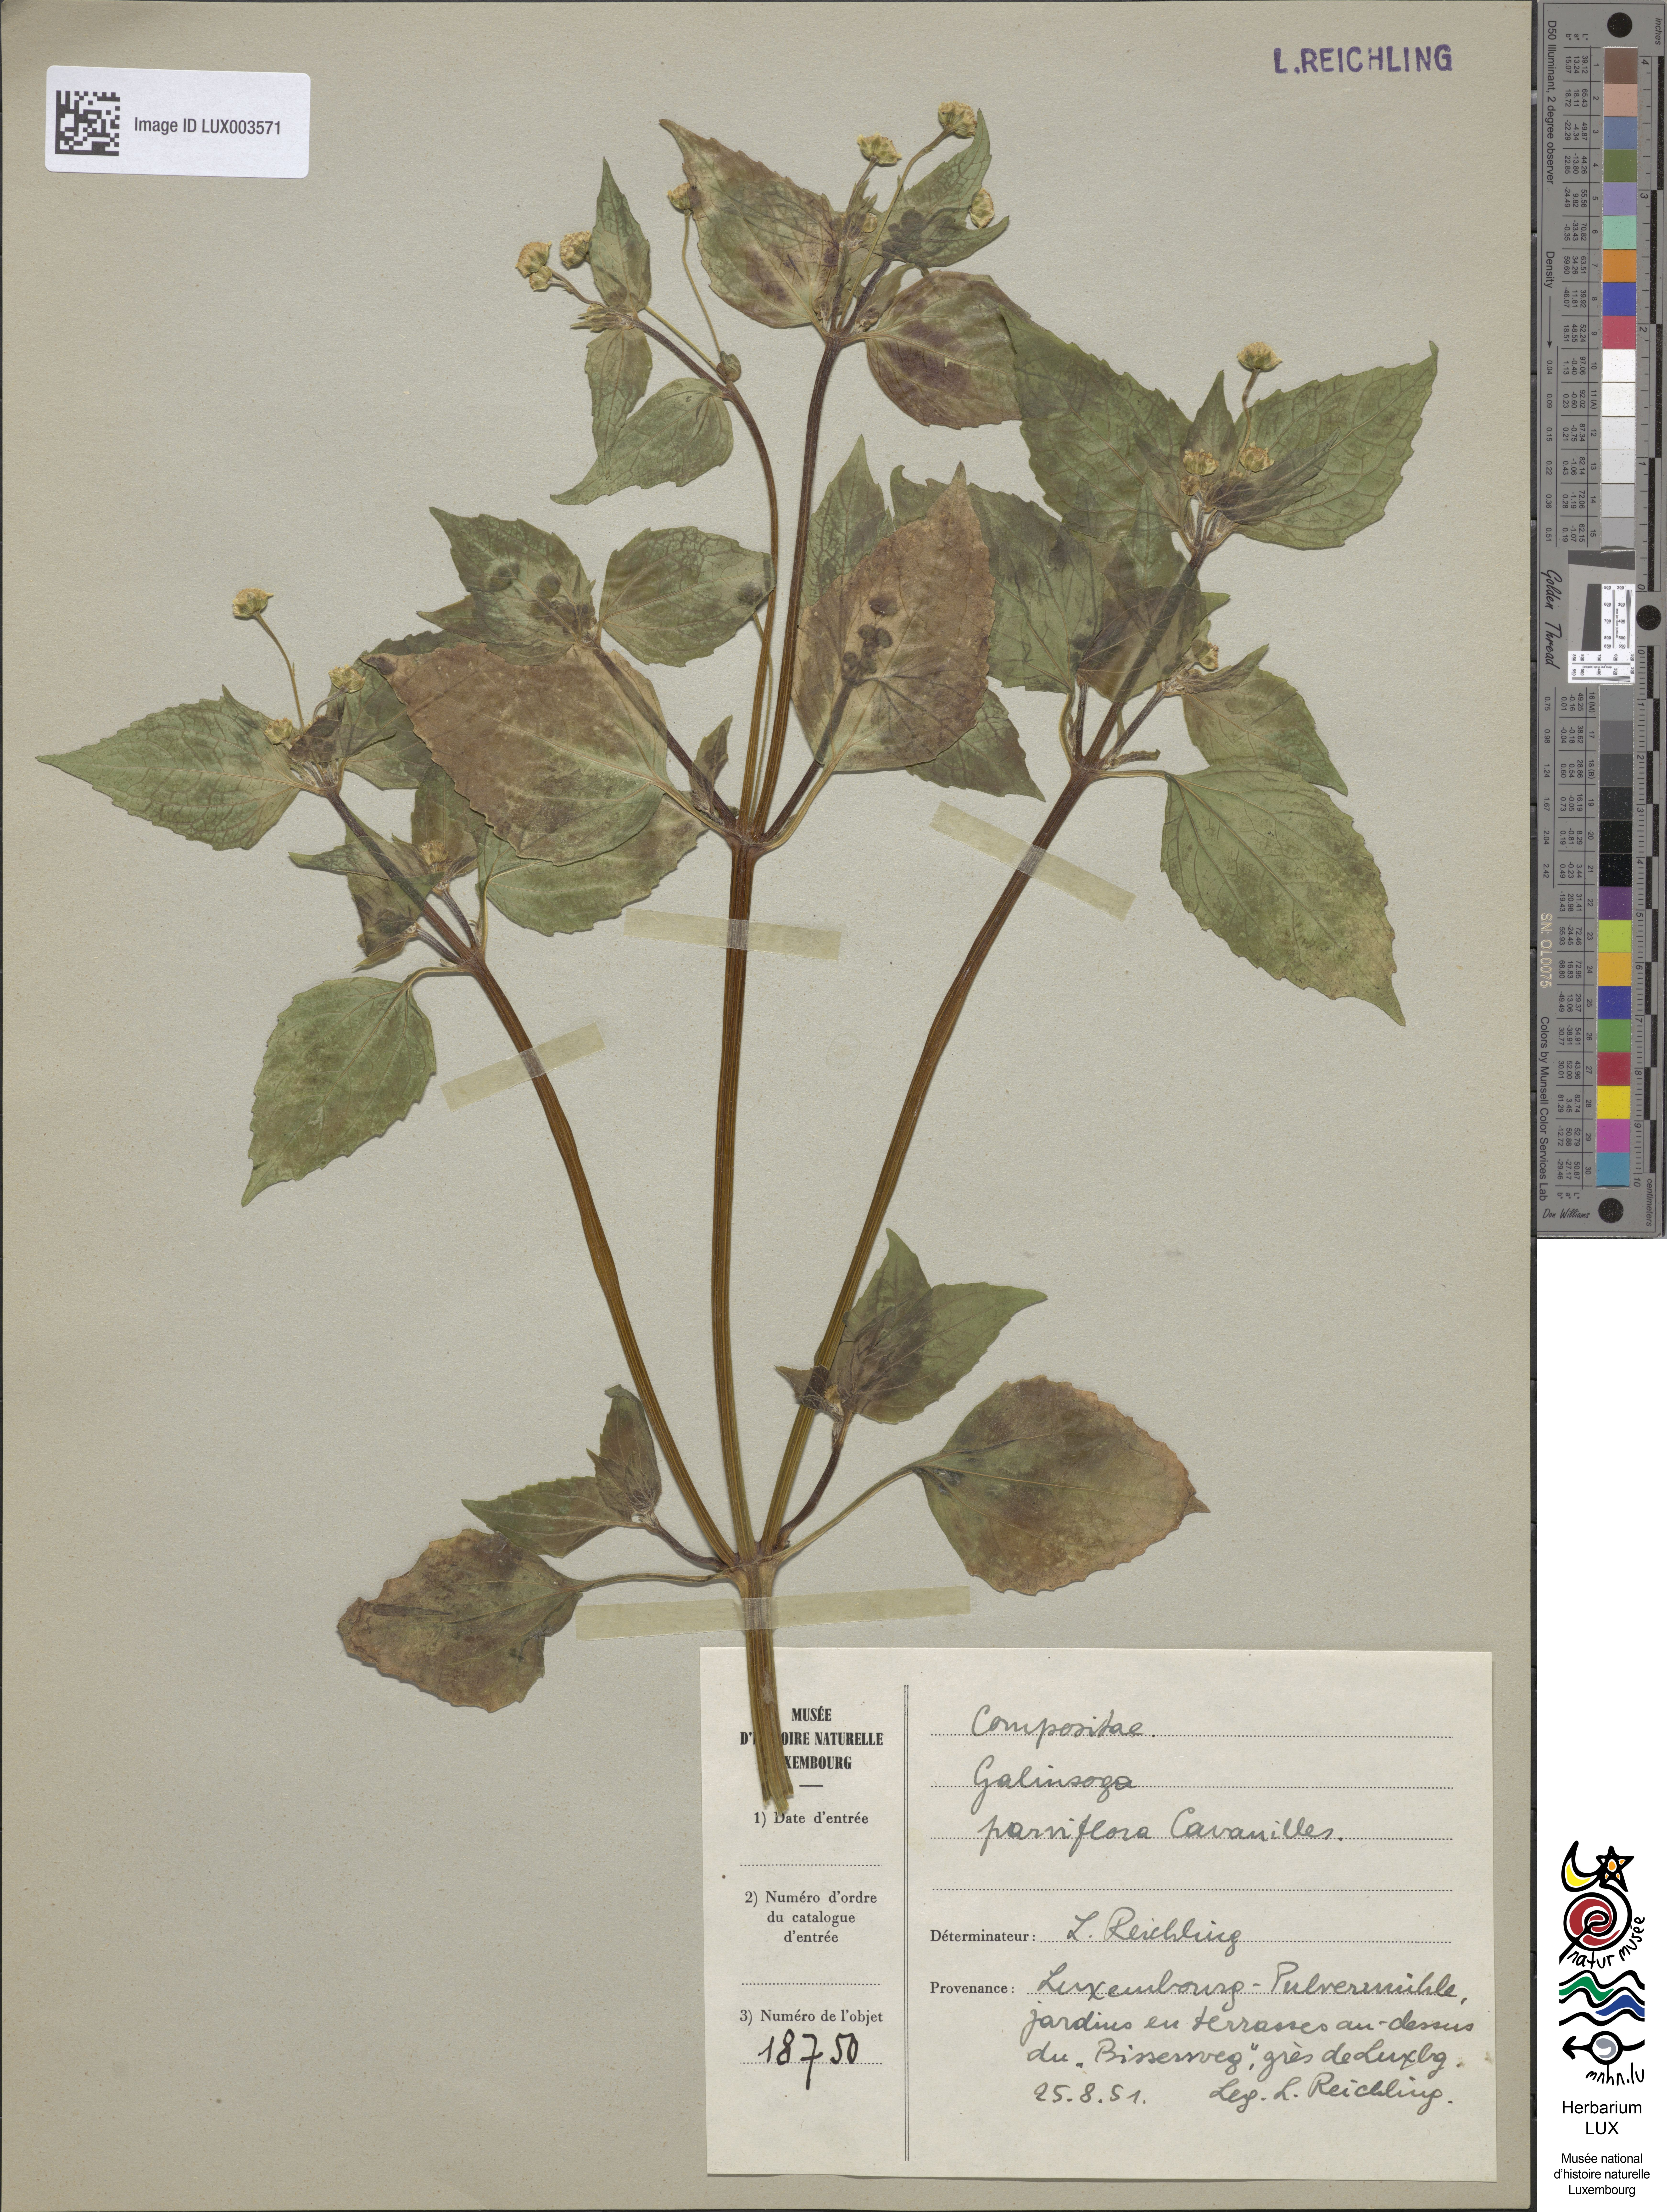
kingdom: Plantae
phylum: Tracheophyta
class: Magnoliopsida
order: Asterales
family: Asteraceae
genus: Galinsoga
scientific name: Galinsoga parviflora
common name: Gallant soldier
